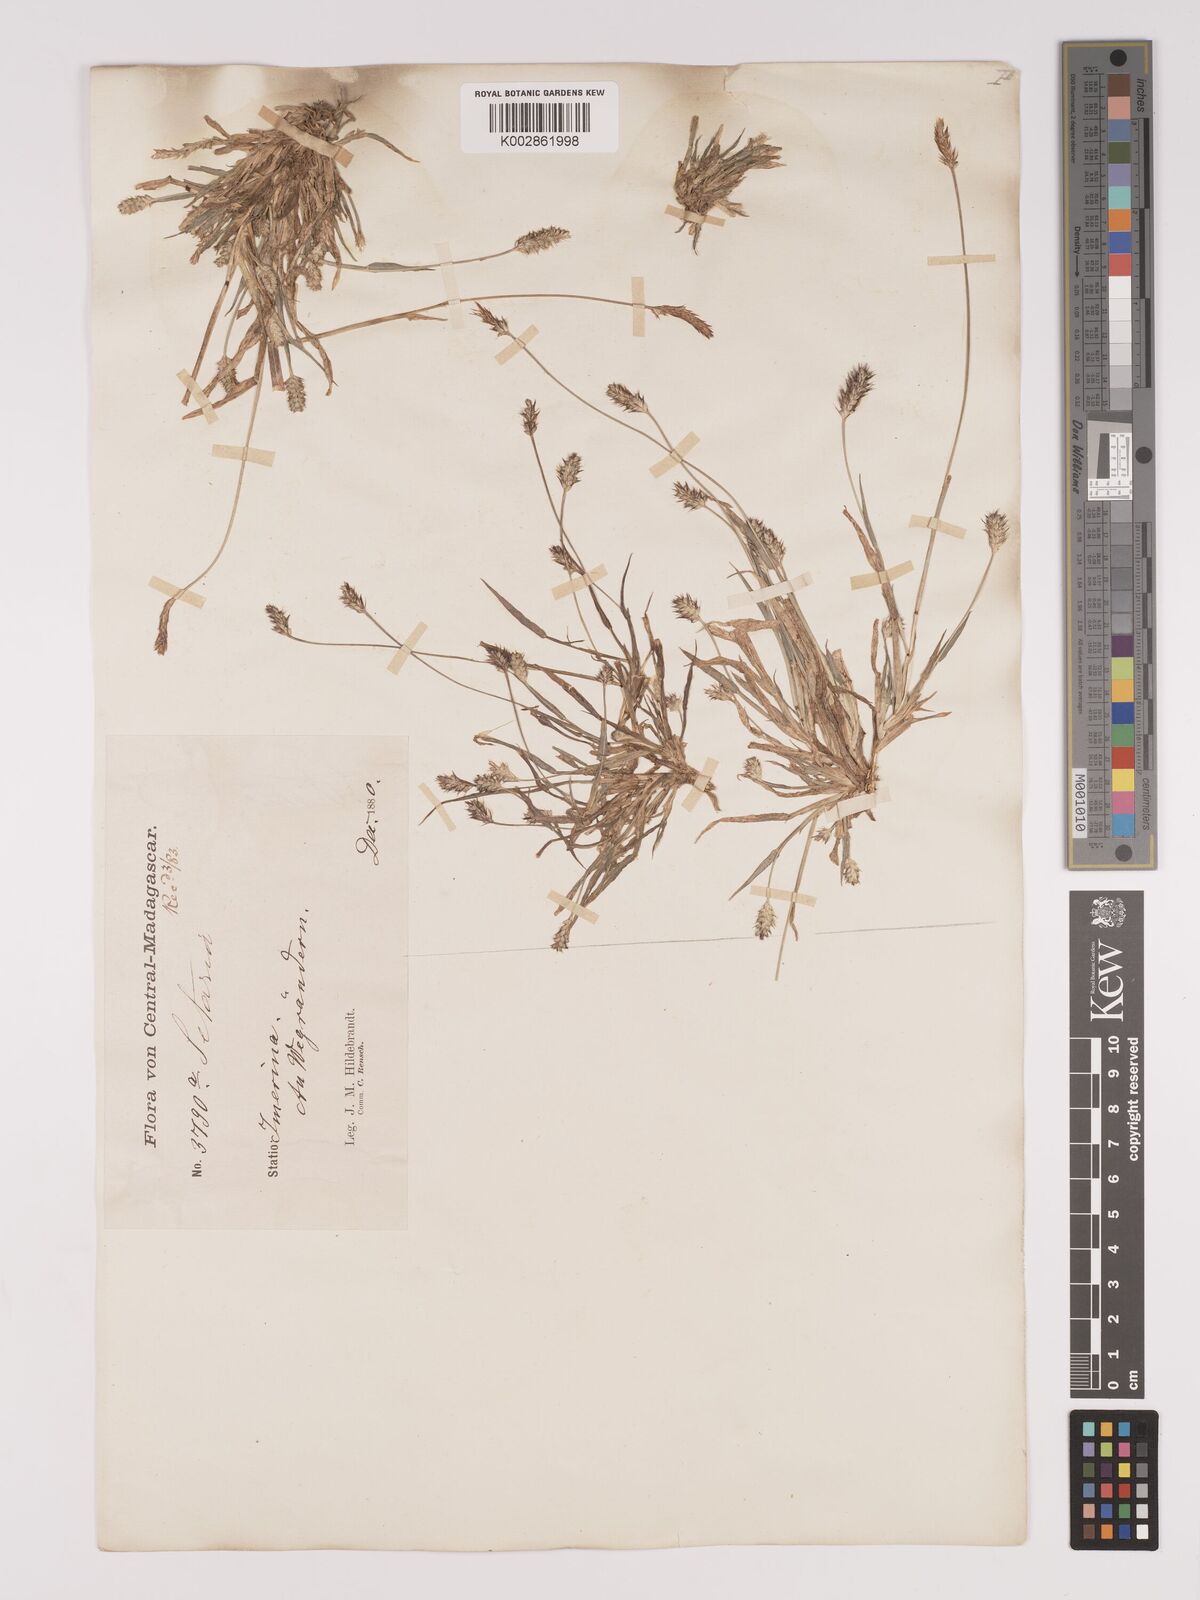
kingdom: Plantae
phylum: Tracheophyta
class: Liliopsida
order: Poales
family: Poaceae
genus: Setaria
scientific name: Setaria pumila
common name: Yellow bristle-grass
